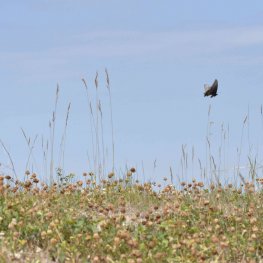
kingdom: Animalia
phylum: Arthropoda
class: Insecta
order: Lepidoptera
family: Papilionidae
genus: Papilio
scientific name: Papilio polyxenes
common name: Black Swallowtail
